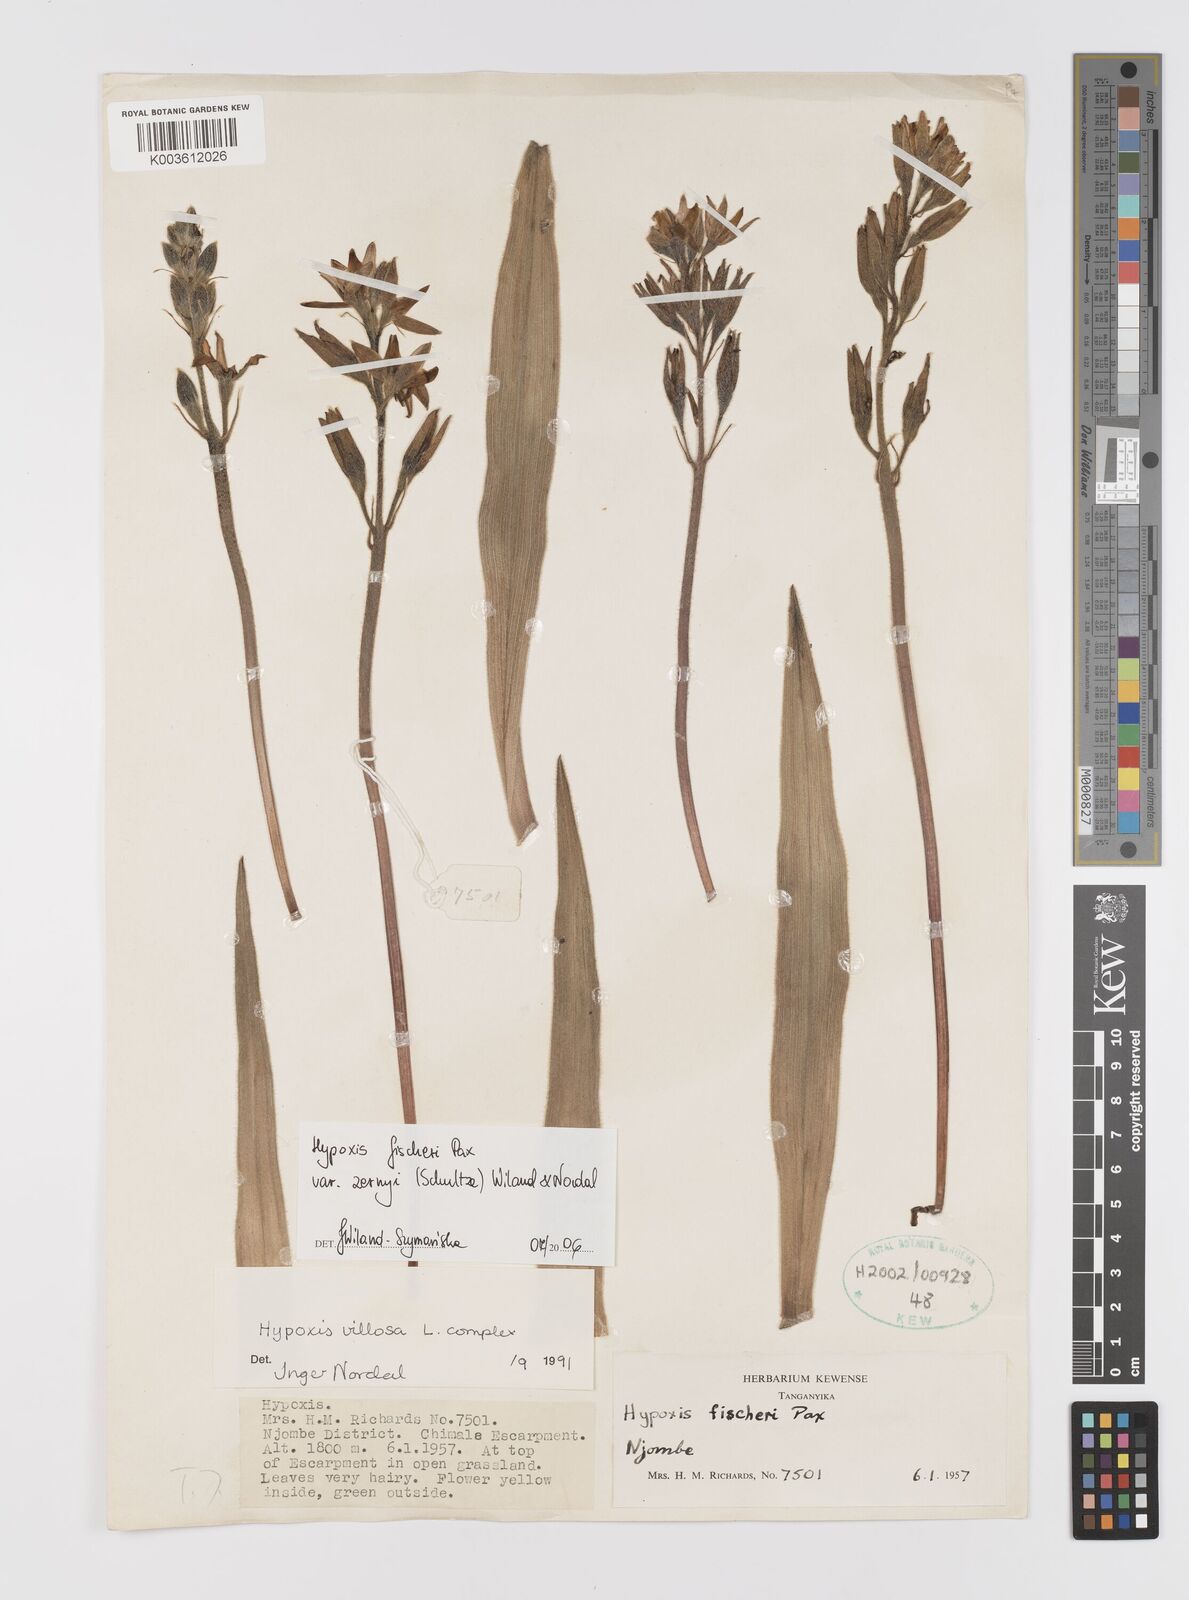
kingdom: Plantae
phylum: Tracheophyta
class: Liliopsida
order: Asparagales
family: Hypoxidaceae
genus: Hypoxis
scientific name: Hypoxis fischeri
